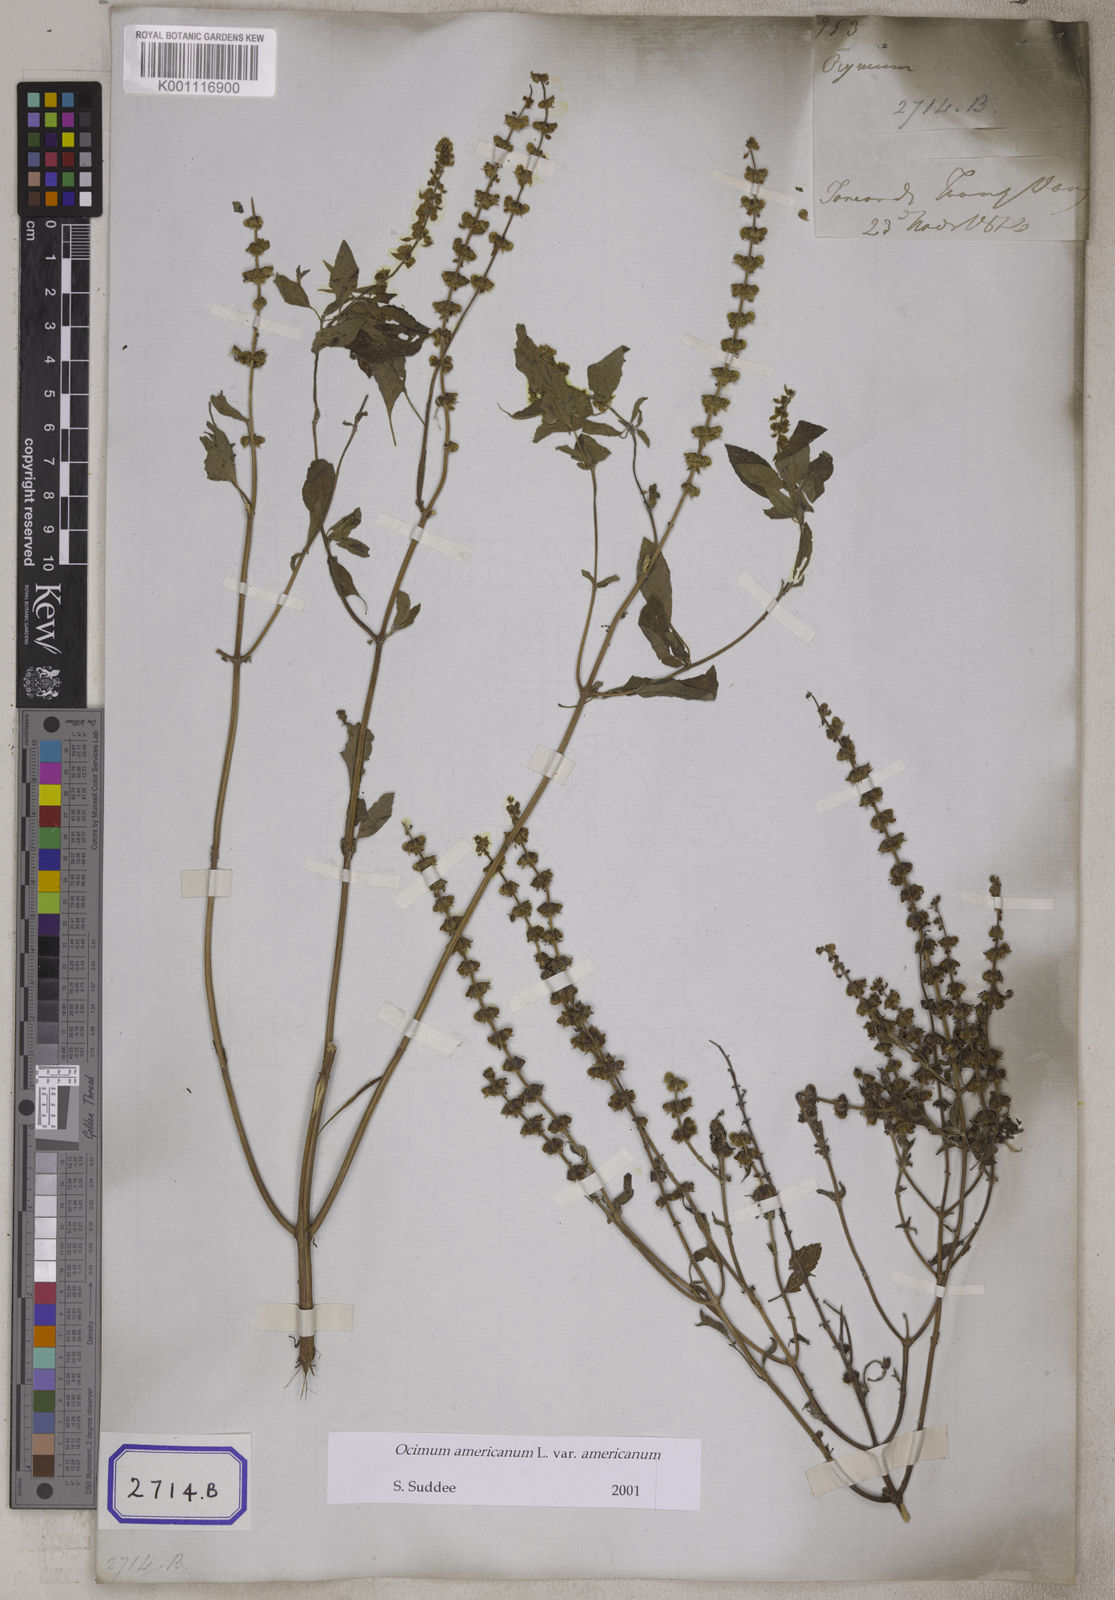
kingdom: Plantae
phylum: Tracheophyta
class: Magnoliopsida
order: Lamiales
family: Lamiaceae
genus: Ocimum
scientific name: Ocimum americanum
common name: American basil
